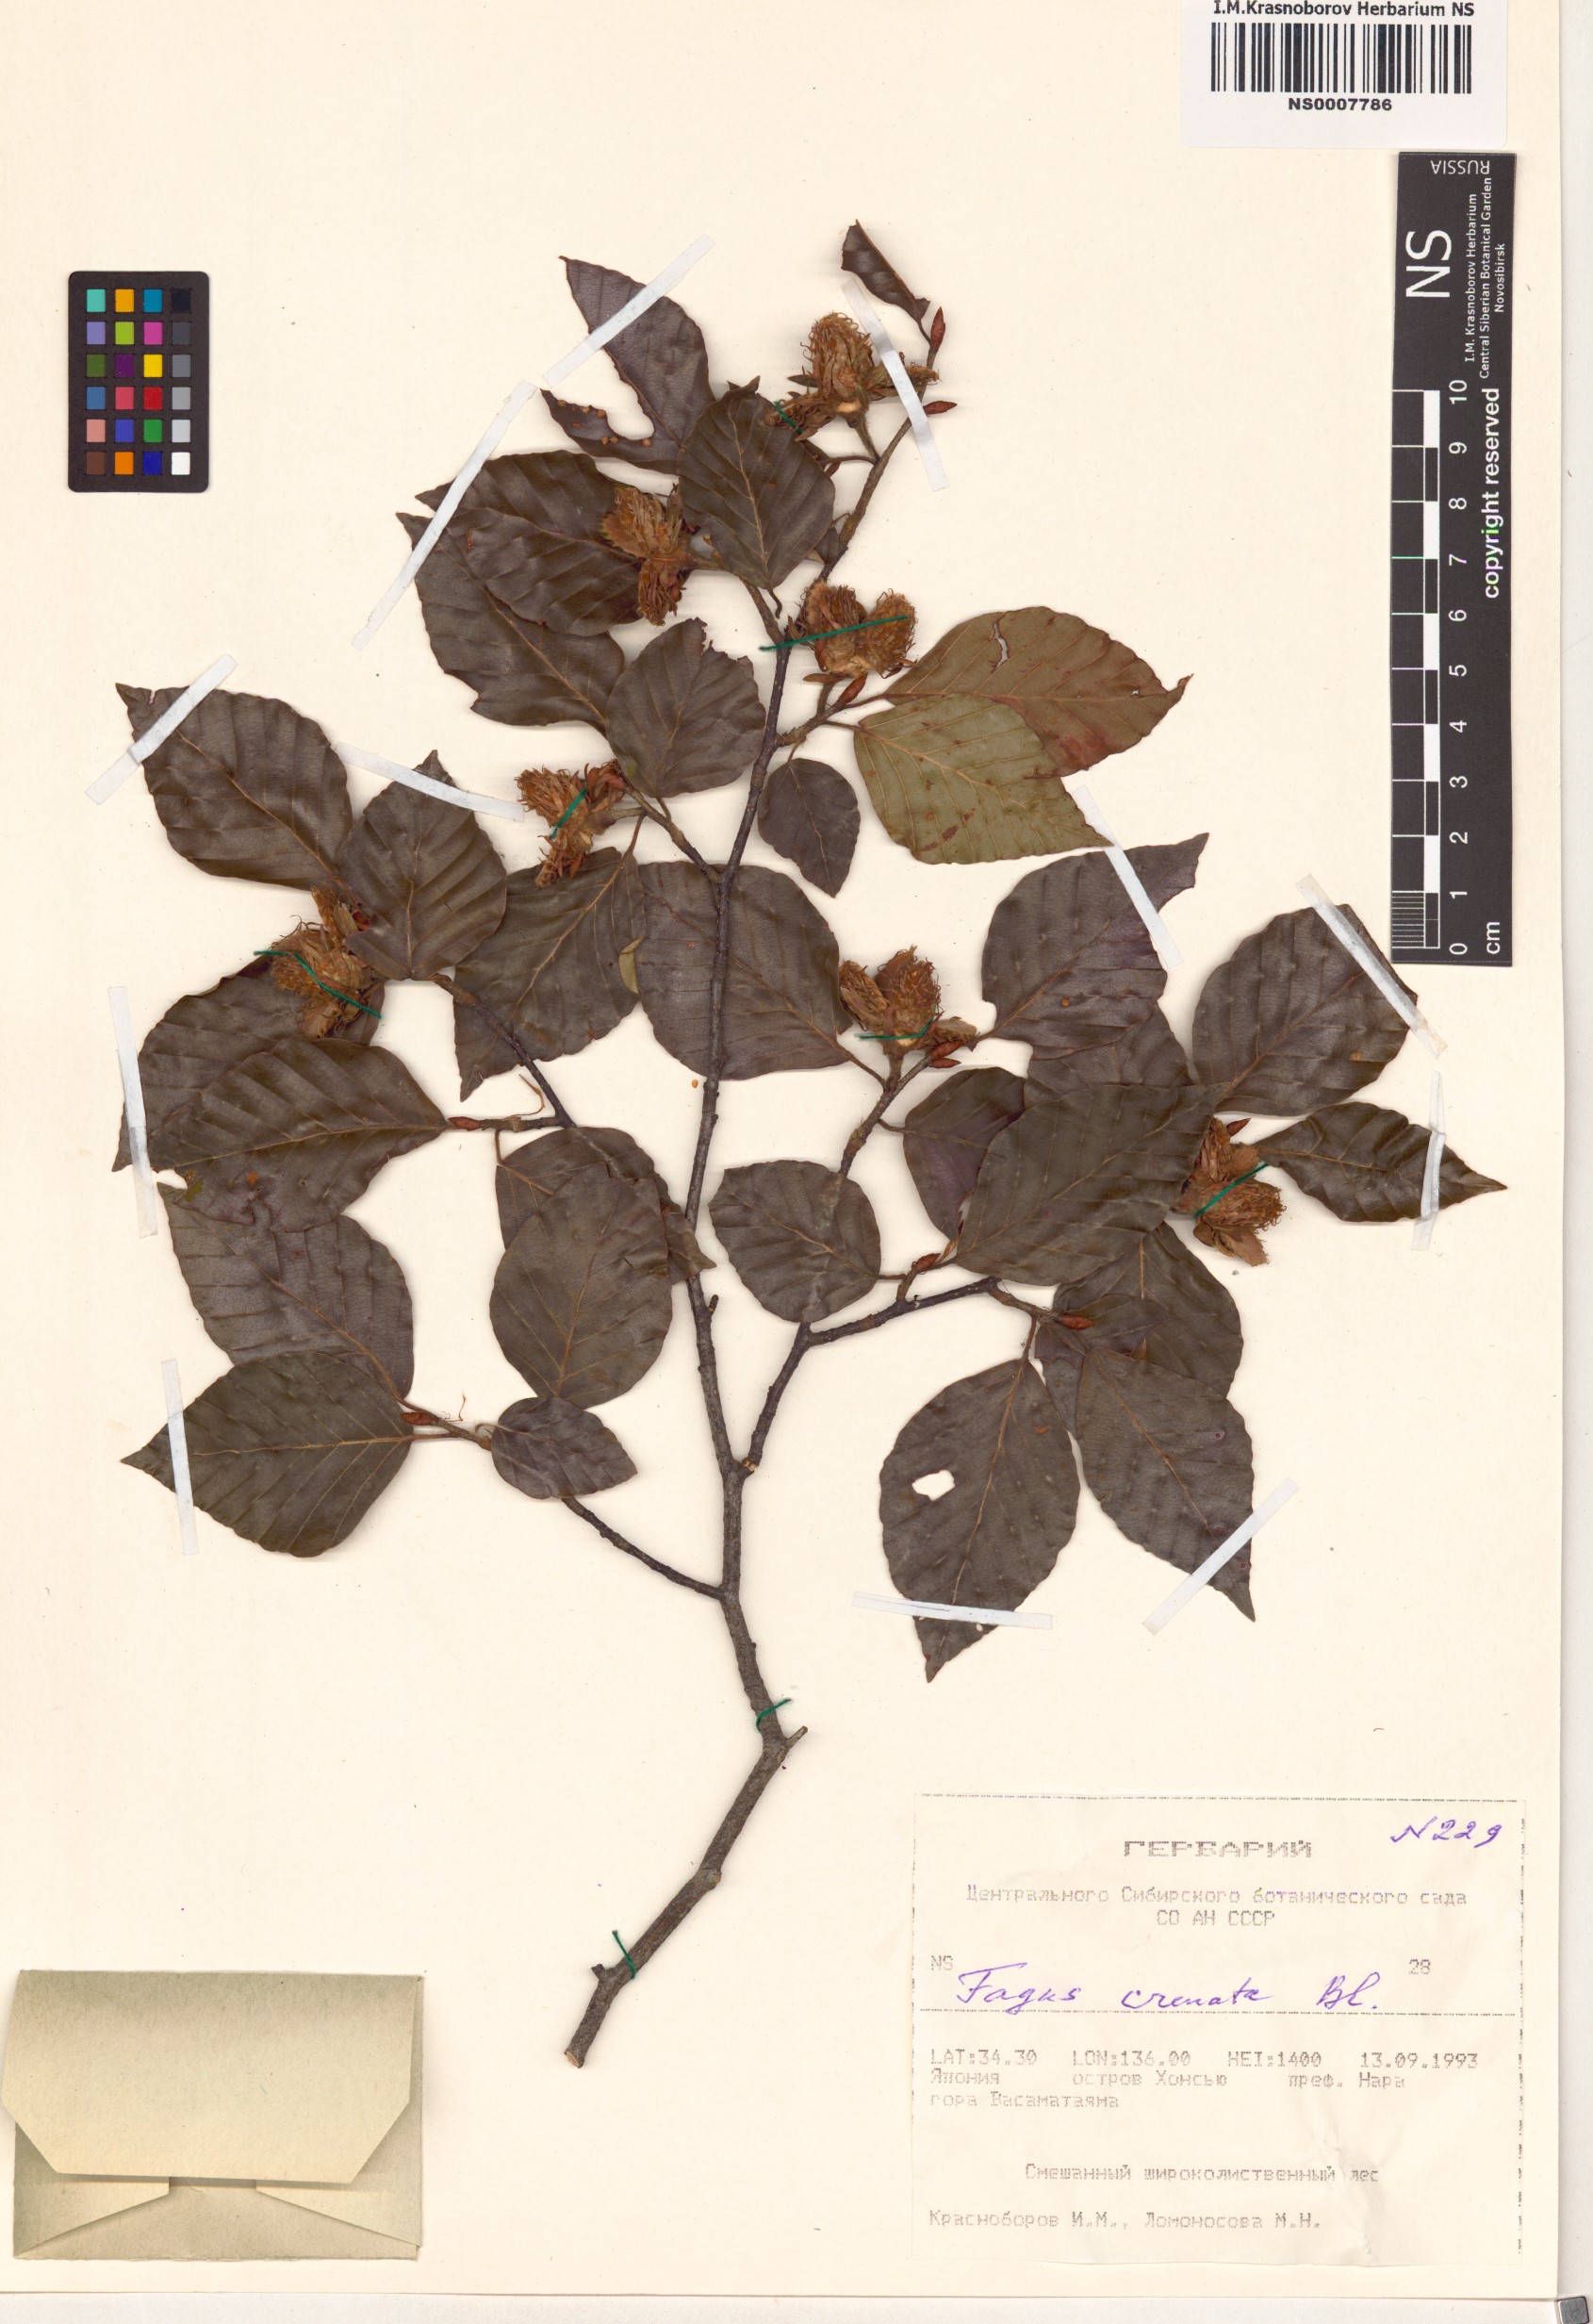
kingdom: Plantae
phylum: Tracheophyta
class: Magnoliopsida
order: Fagales
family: Fagaceae
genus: Fagus
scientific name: Fagus crenata
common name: Japanese beech
